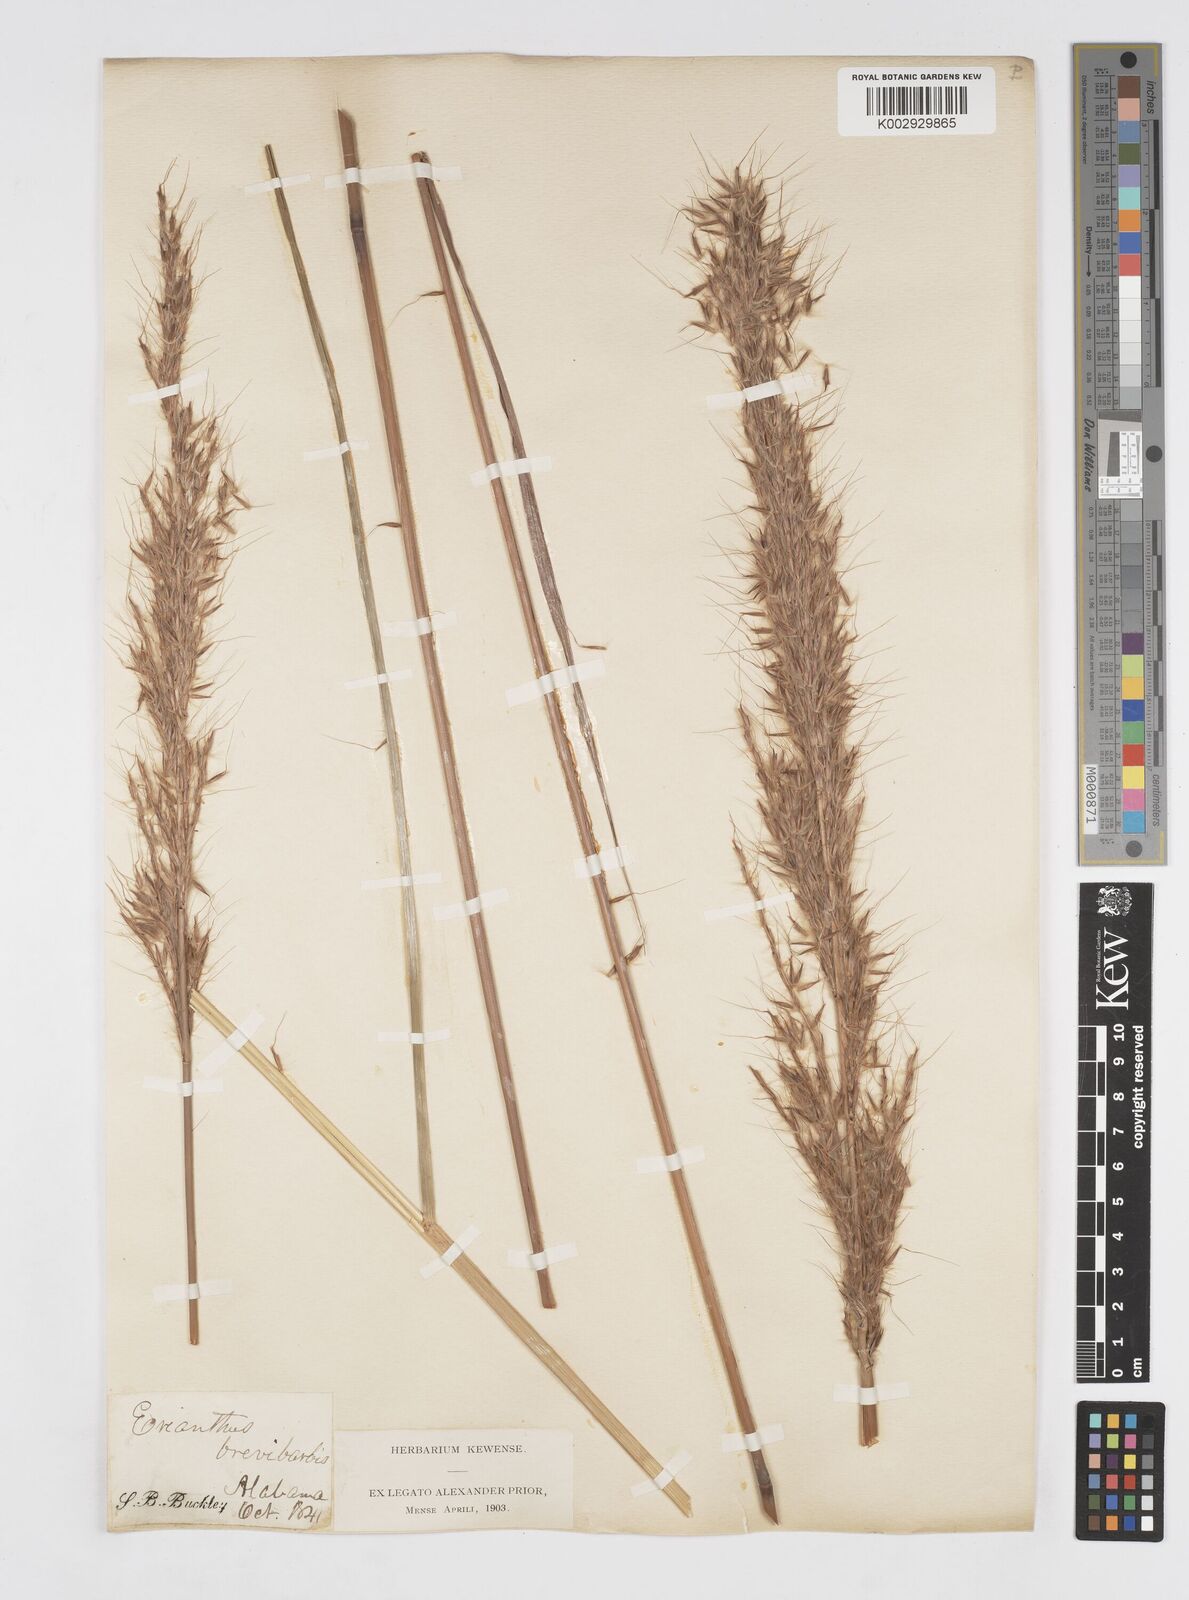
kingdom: Plantae
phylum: Tracheophyta
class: Liliopsida
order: Poales
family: Poaceae
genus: Erianthus
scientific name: Erianthus contortus
